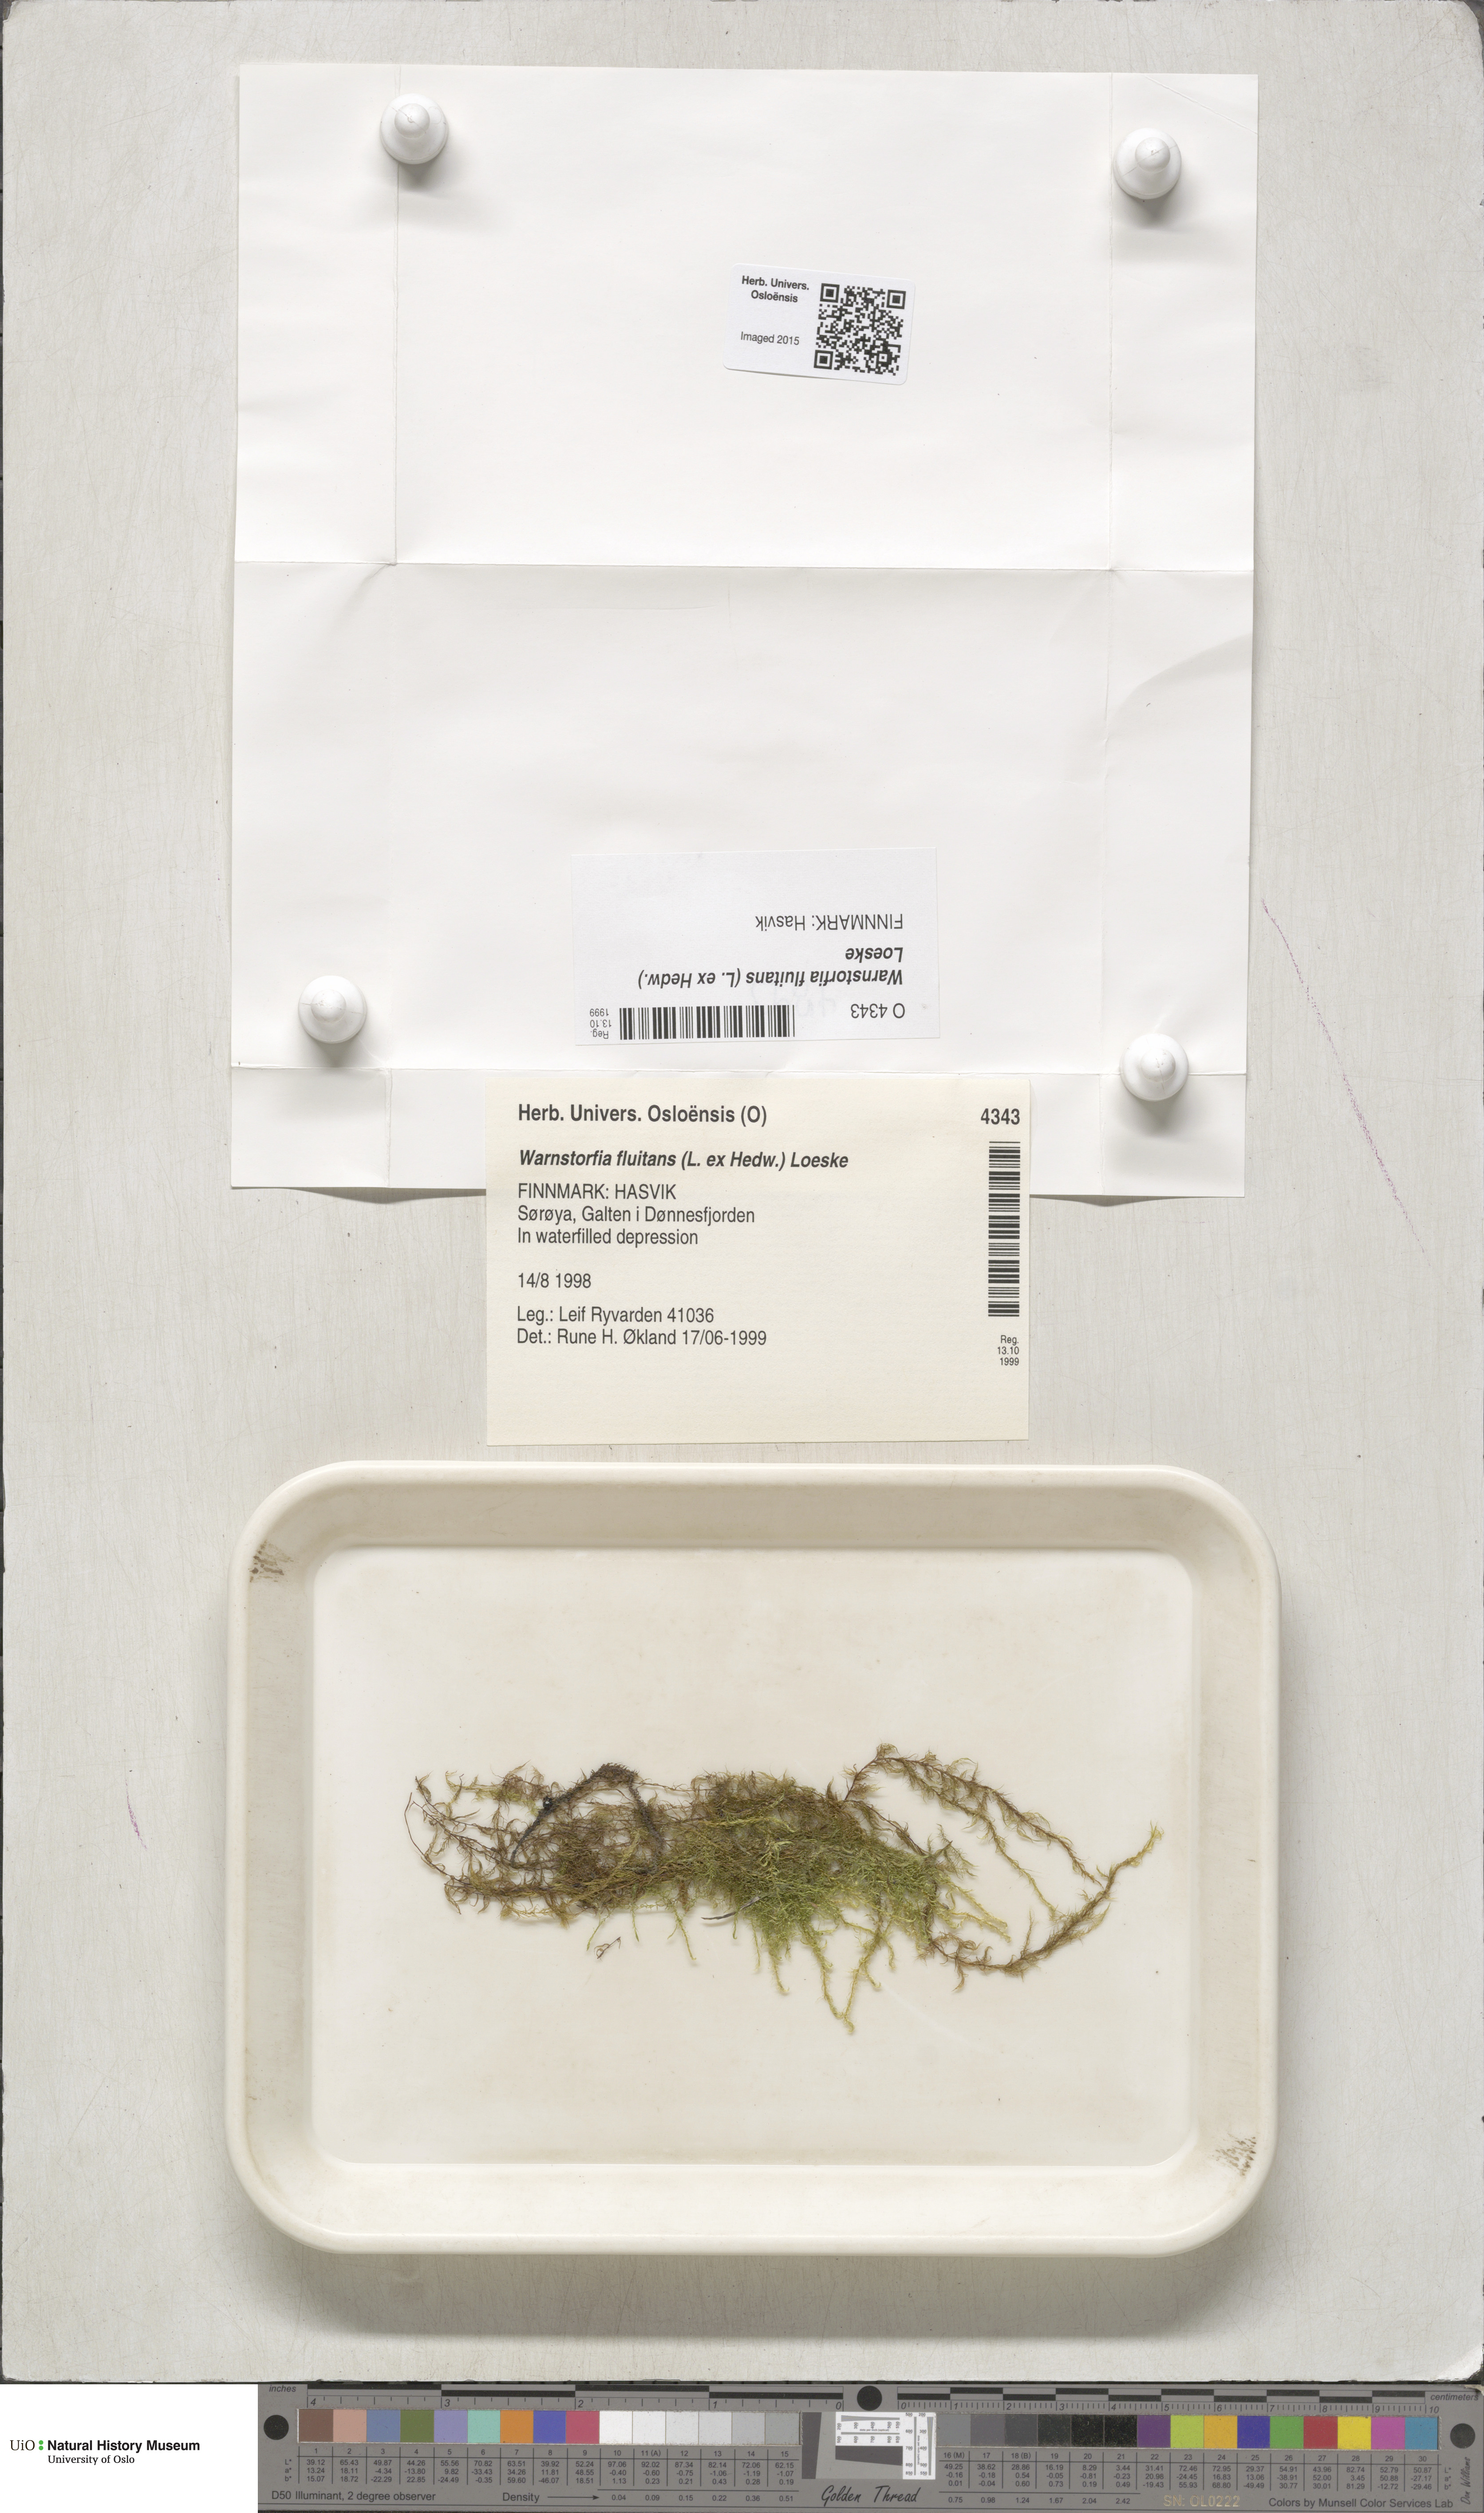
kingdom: Plantae
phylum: Bryophyta
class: Bryopsida
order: Hypnales
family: Calliergonaceae
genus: Warnstorfia
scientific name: Warnstorfia fluitans
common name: Floating hook moss
